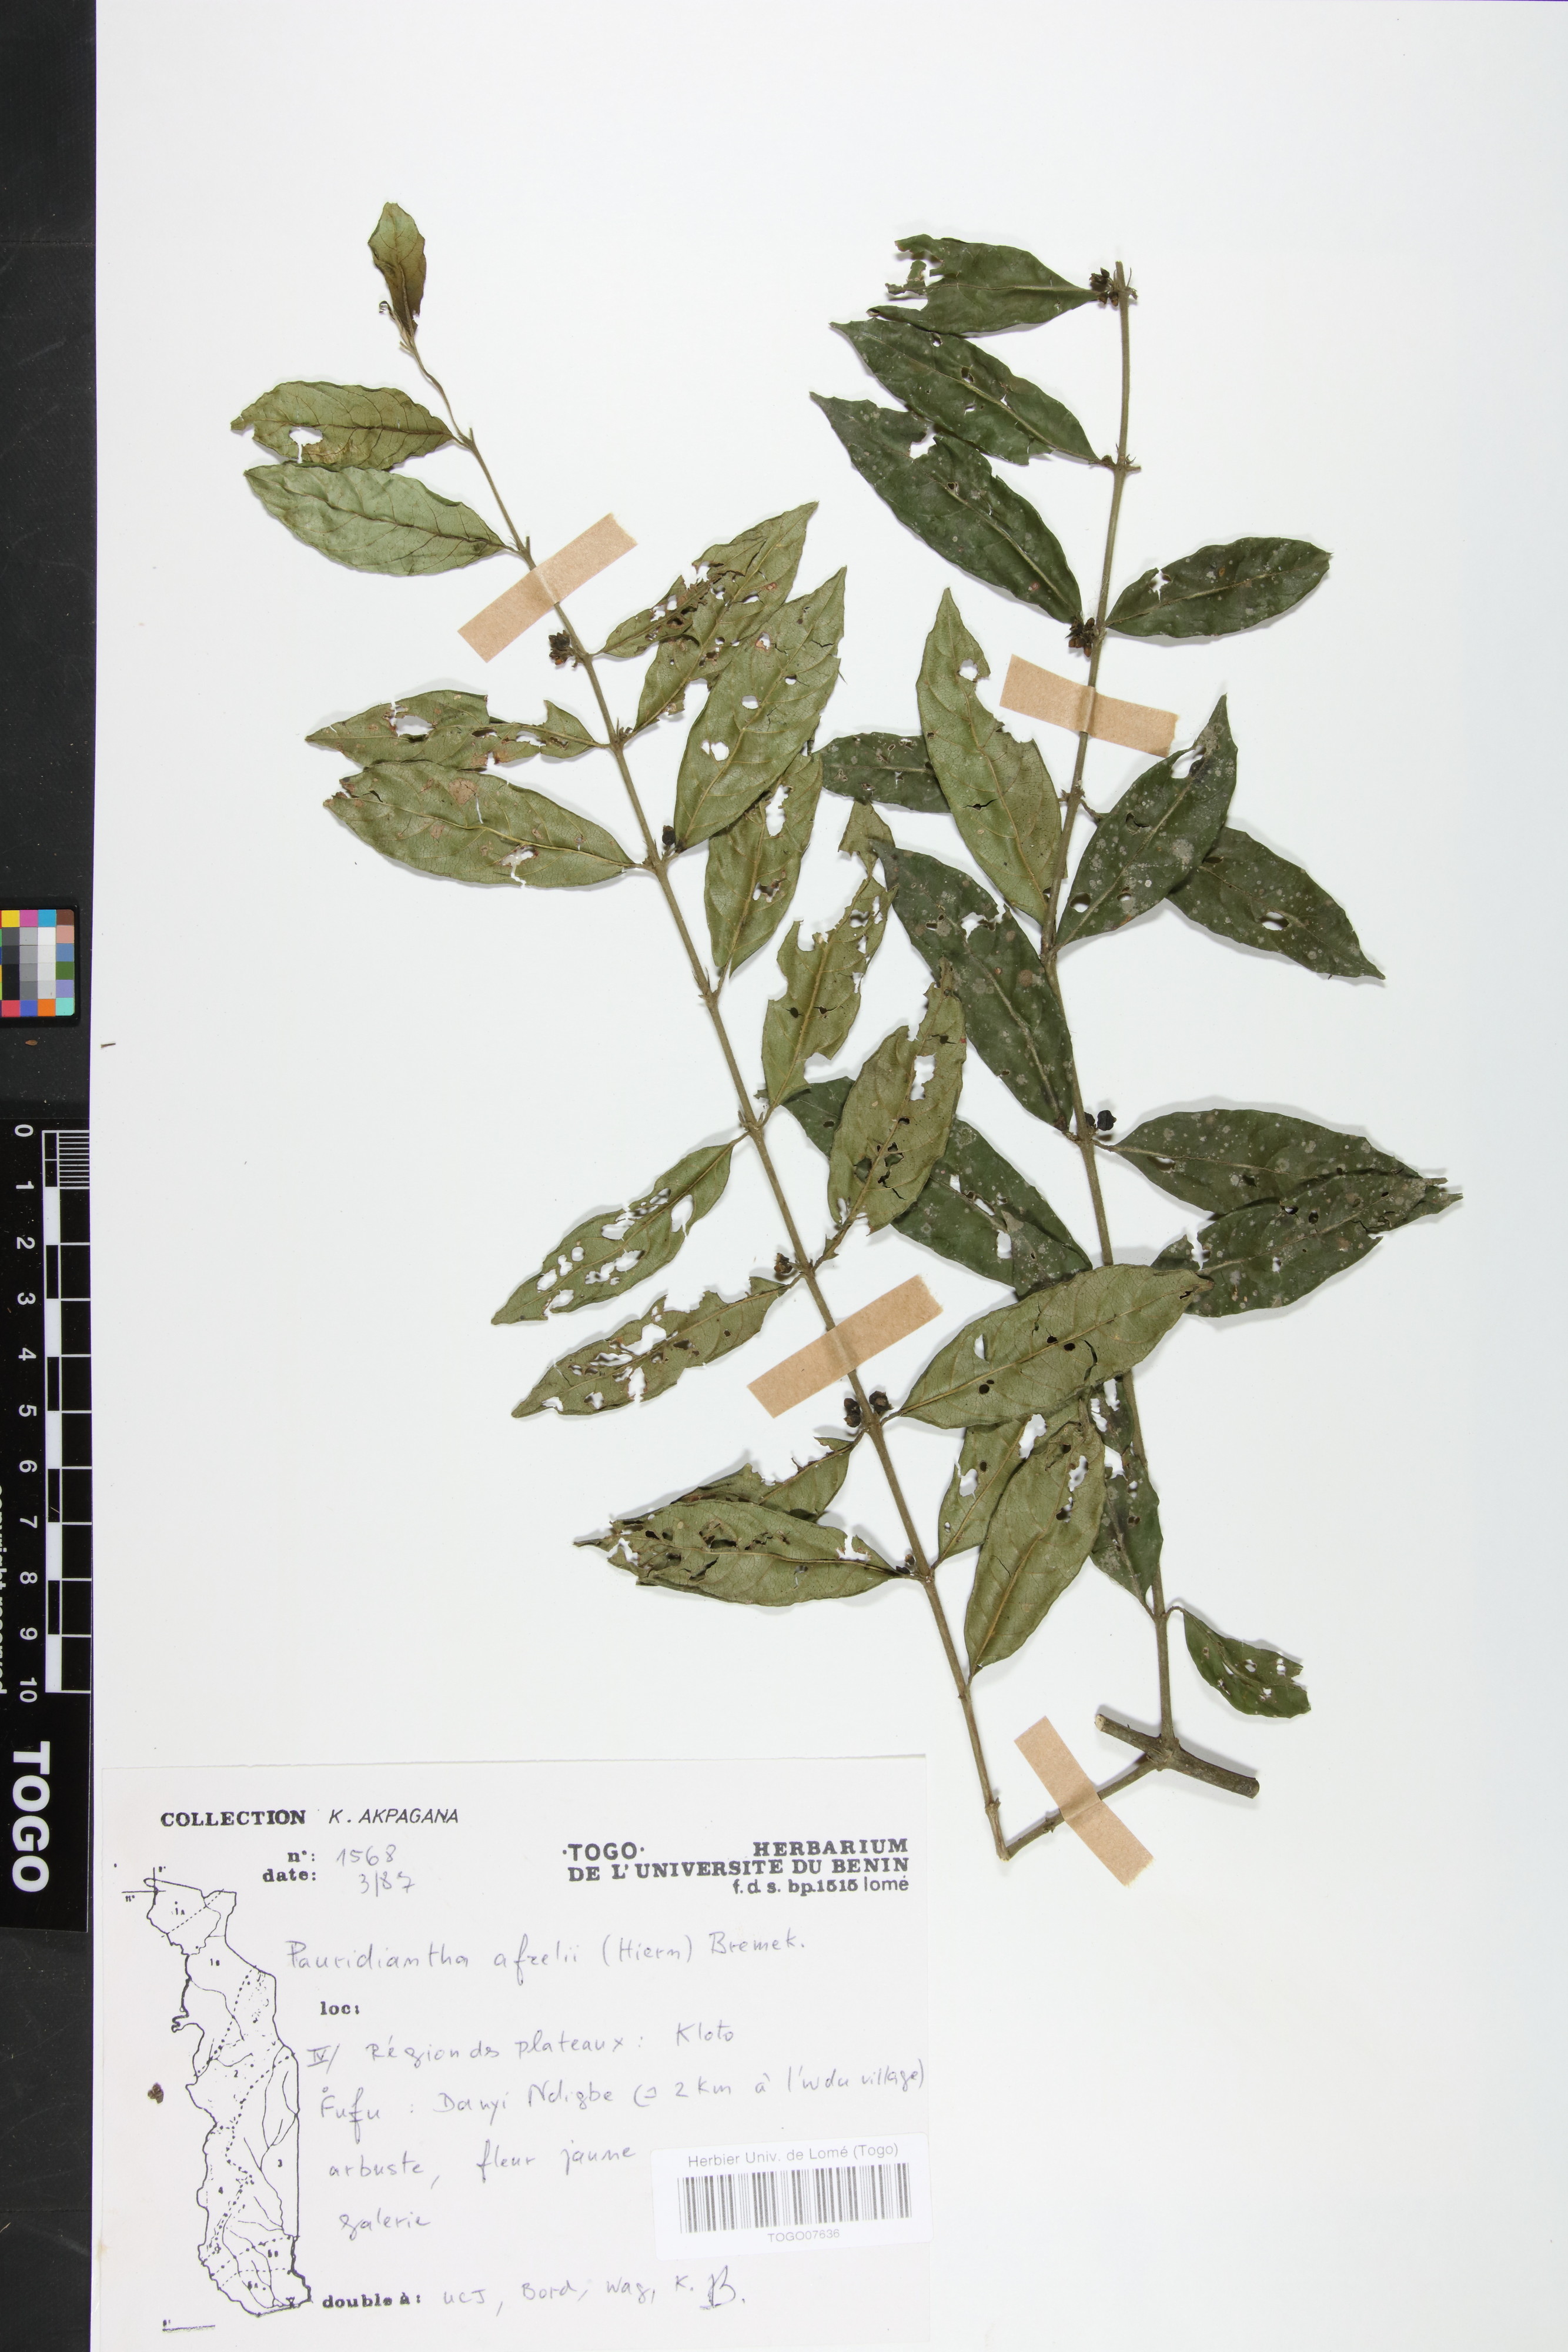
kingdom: Plantae
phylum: Tracheophyta
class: Magnoliopsida
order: Gentianales
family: Rubiaceae
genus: Pauridiantha
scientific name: Pauridiantha afzelii
